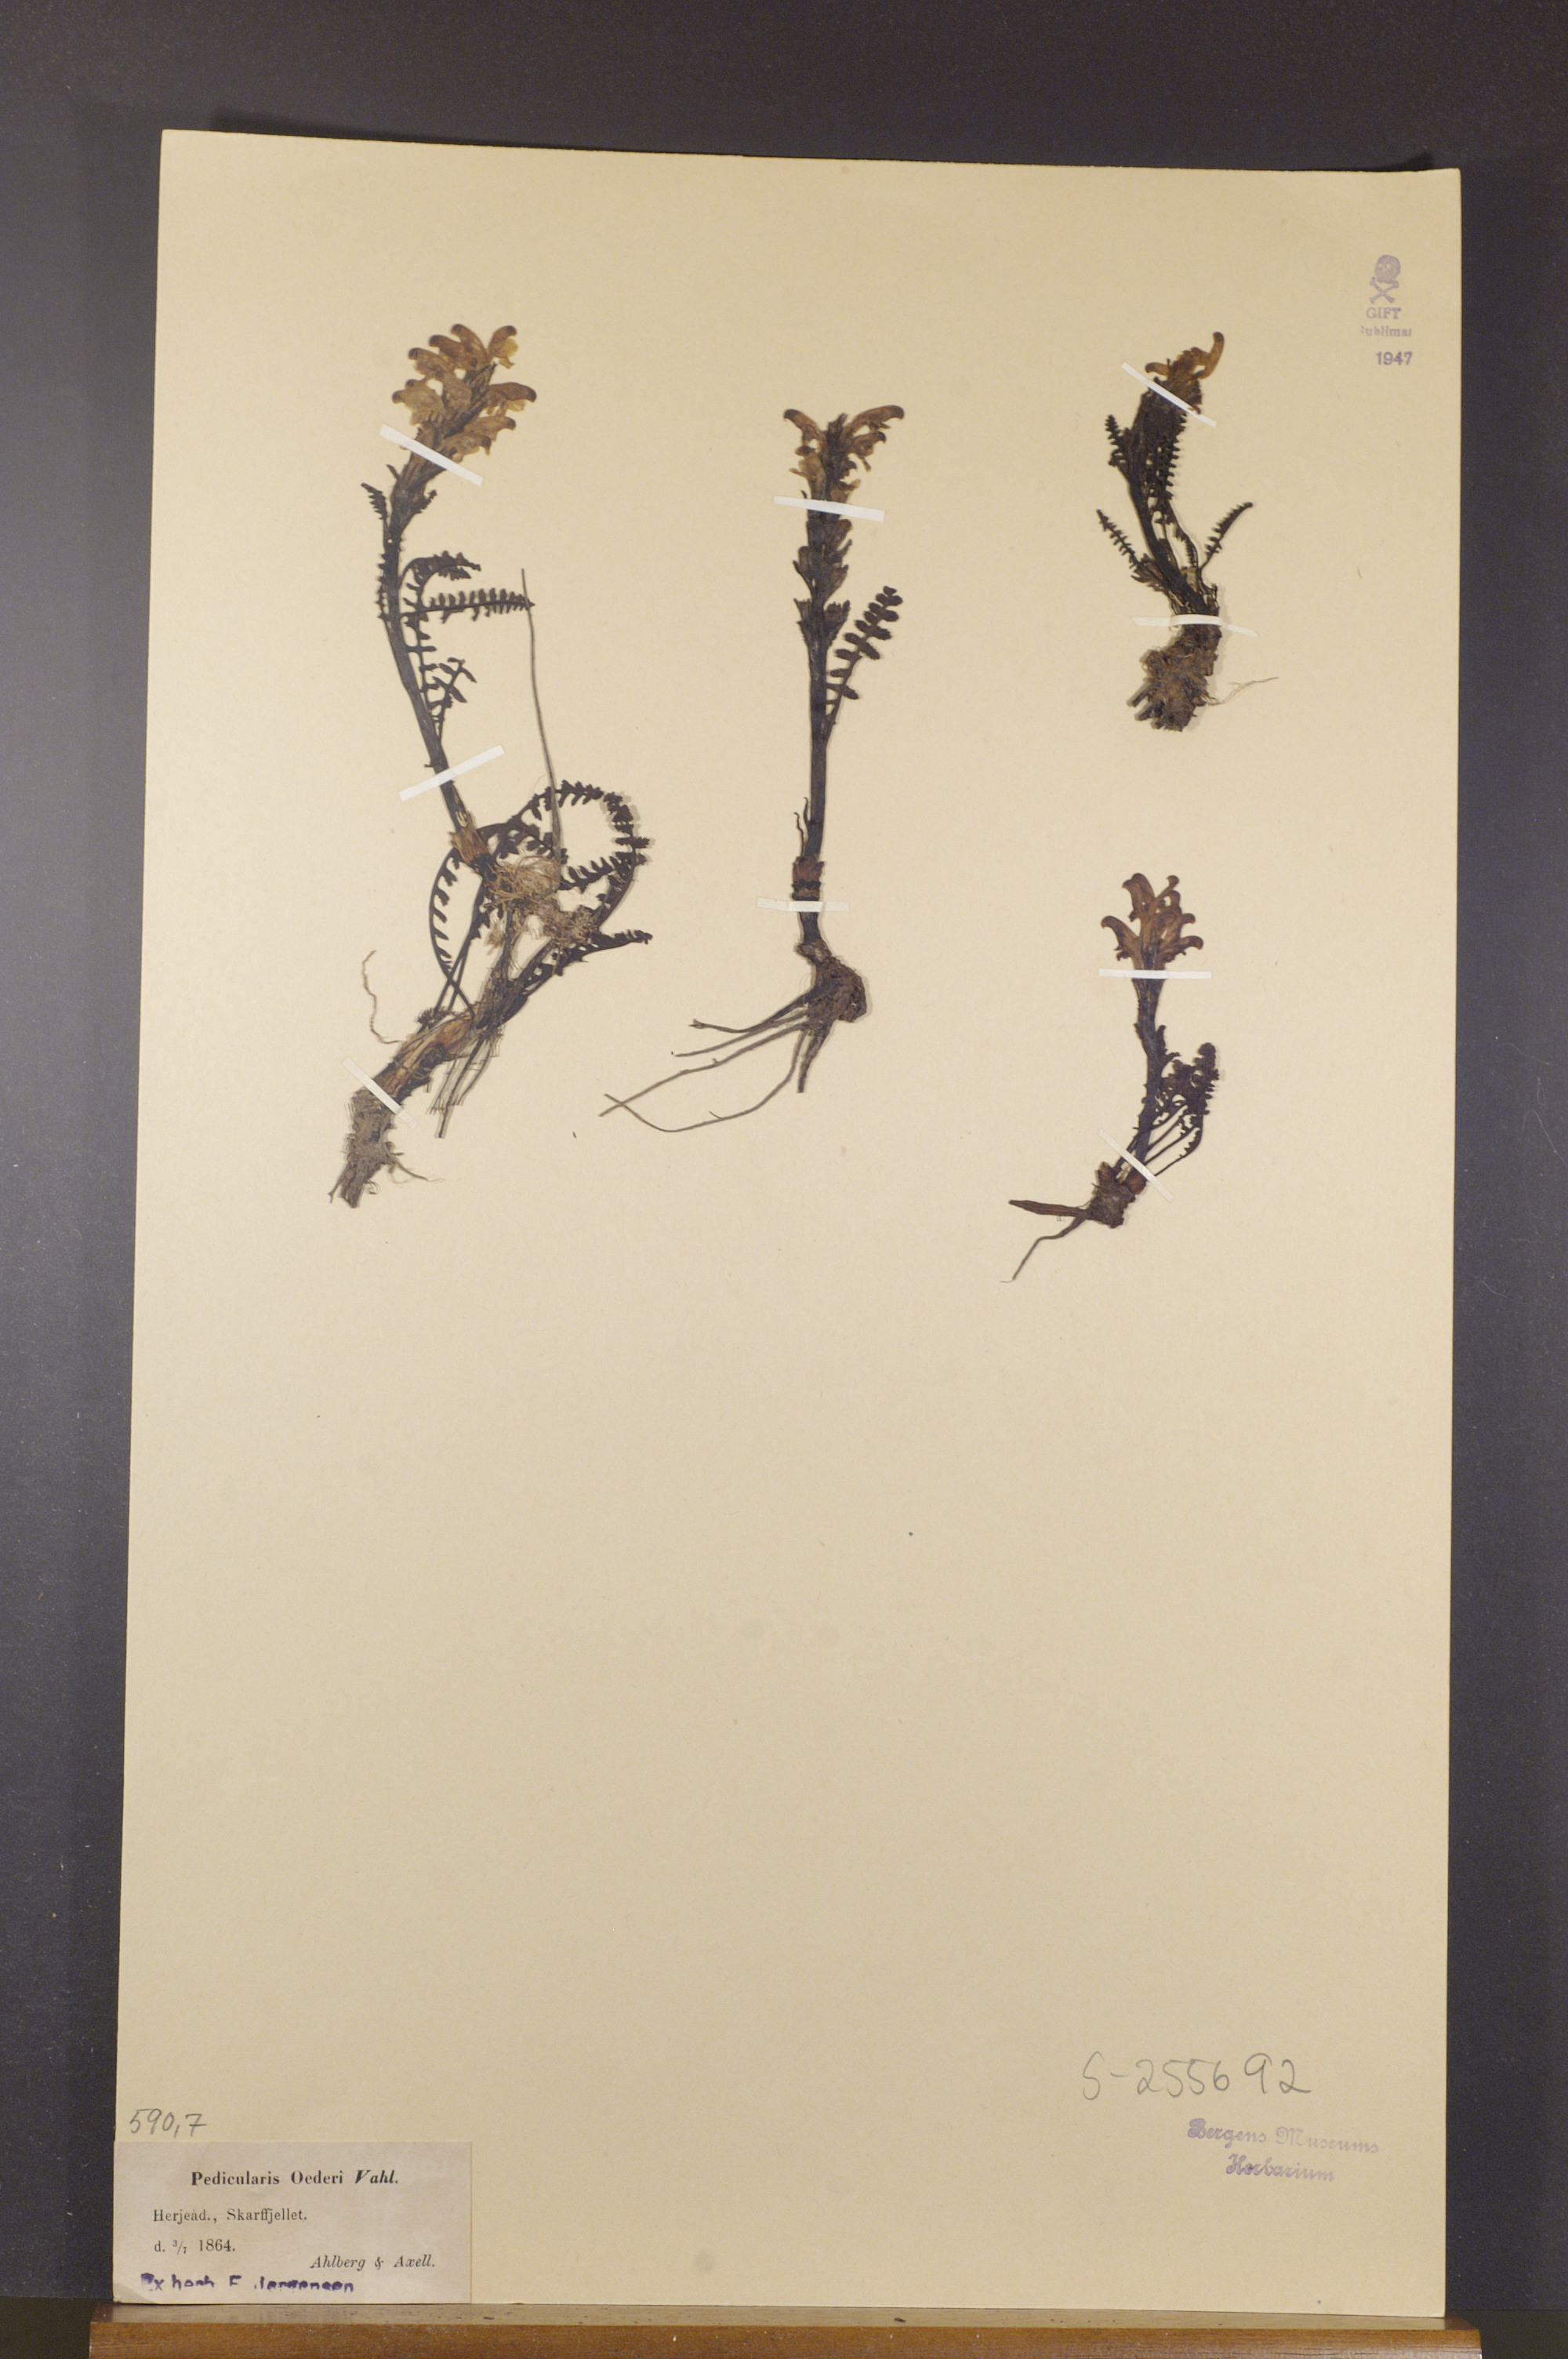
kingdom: Plantae
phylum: Tracheophyta
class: Magnoliopsida
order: Lamiales
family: Orobanchaceae
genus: Pedicularis
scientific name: Pedicularis oederi
